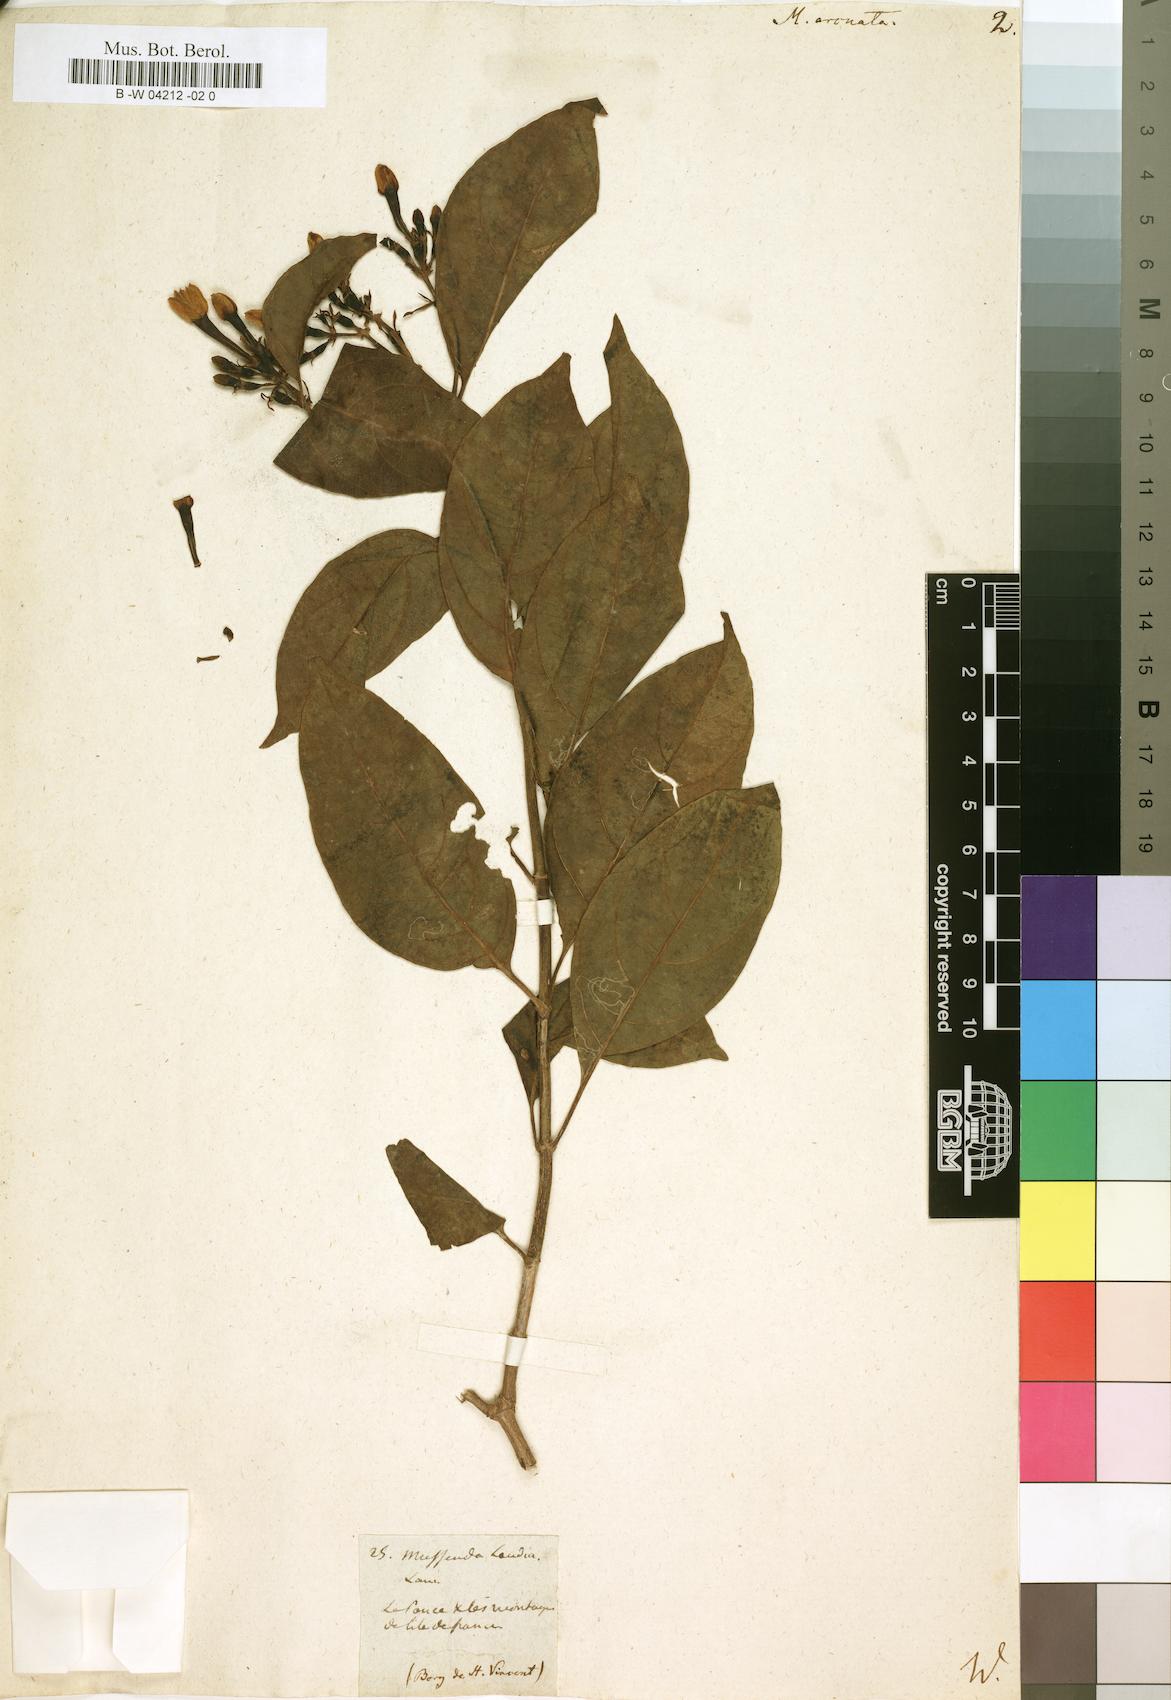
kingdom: Plantae
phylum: Tracheophyta
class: Magnoliopsida
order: Gentianales
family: Rubiaceae
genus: Mussaenda
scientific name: Mussaenda arcuata
